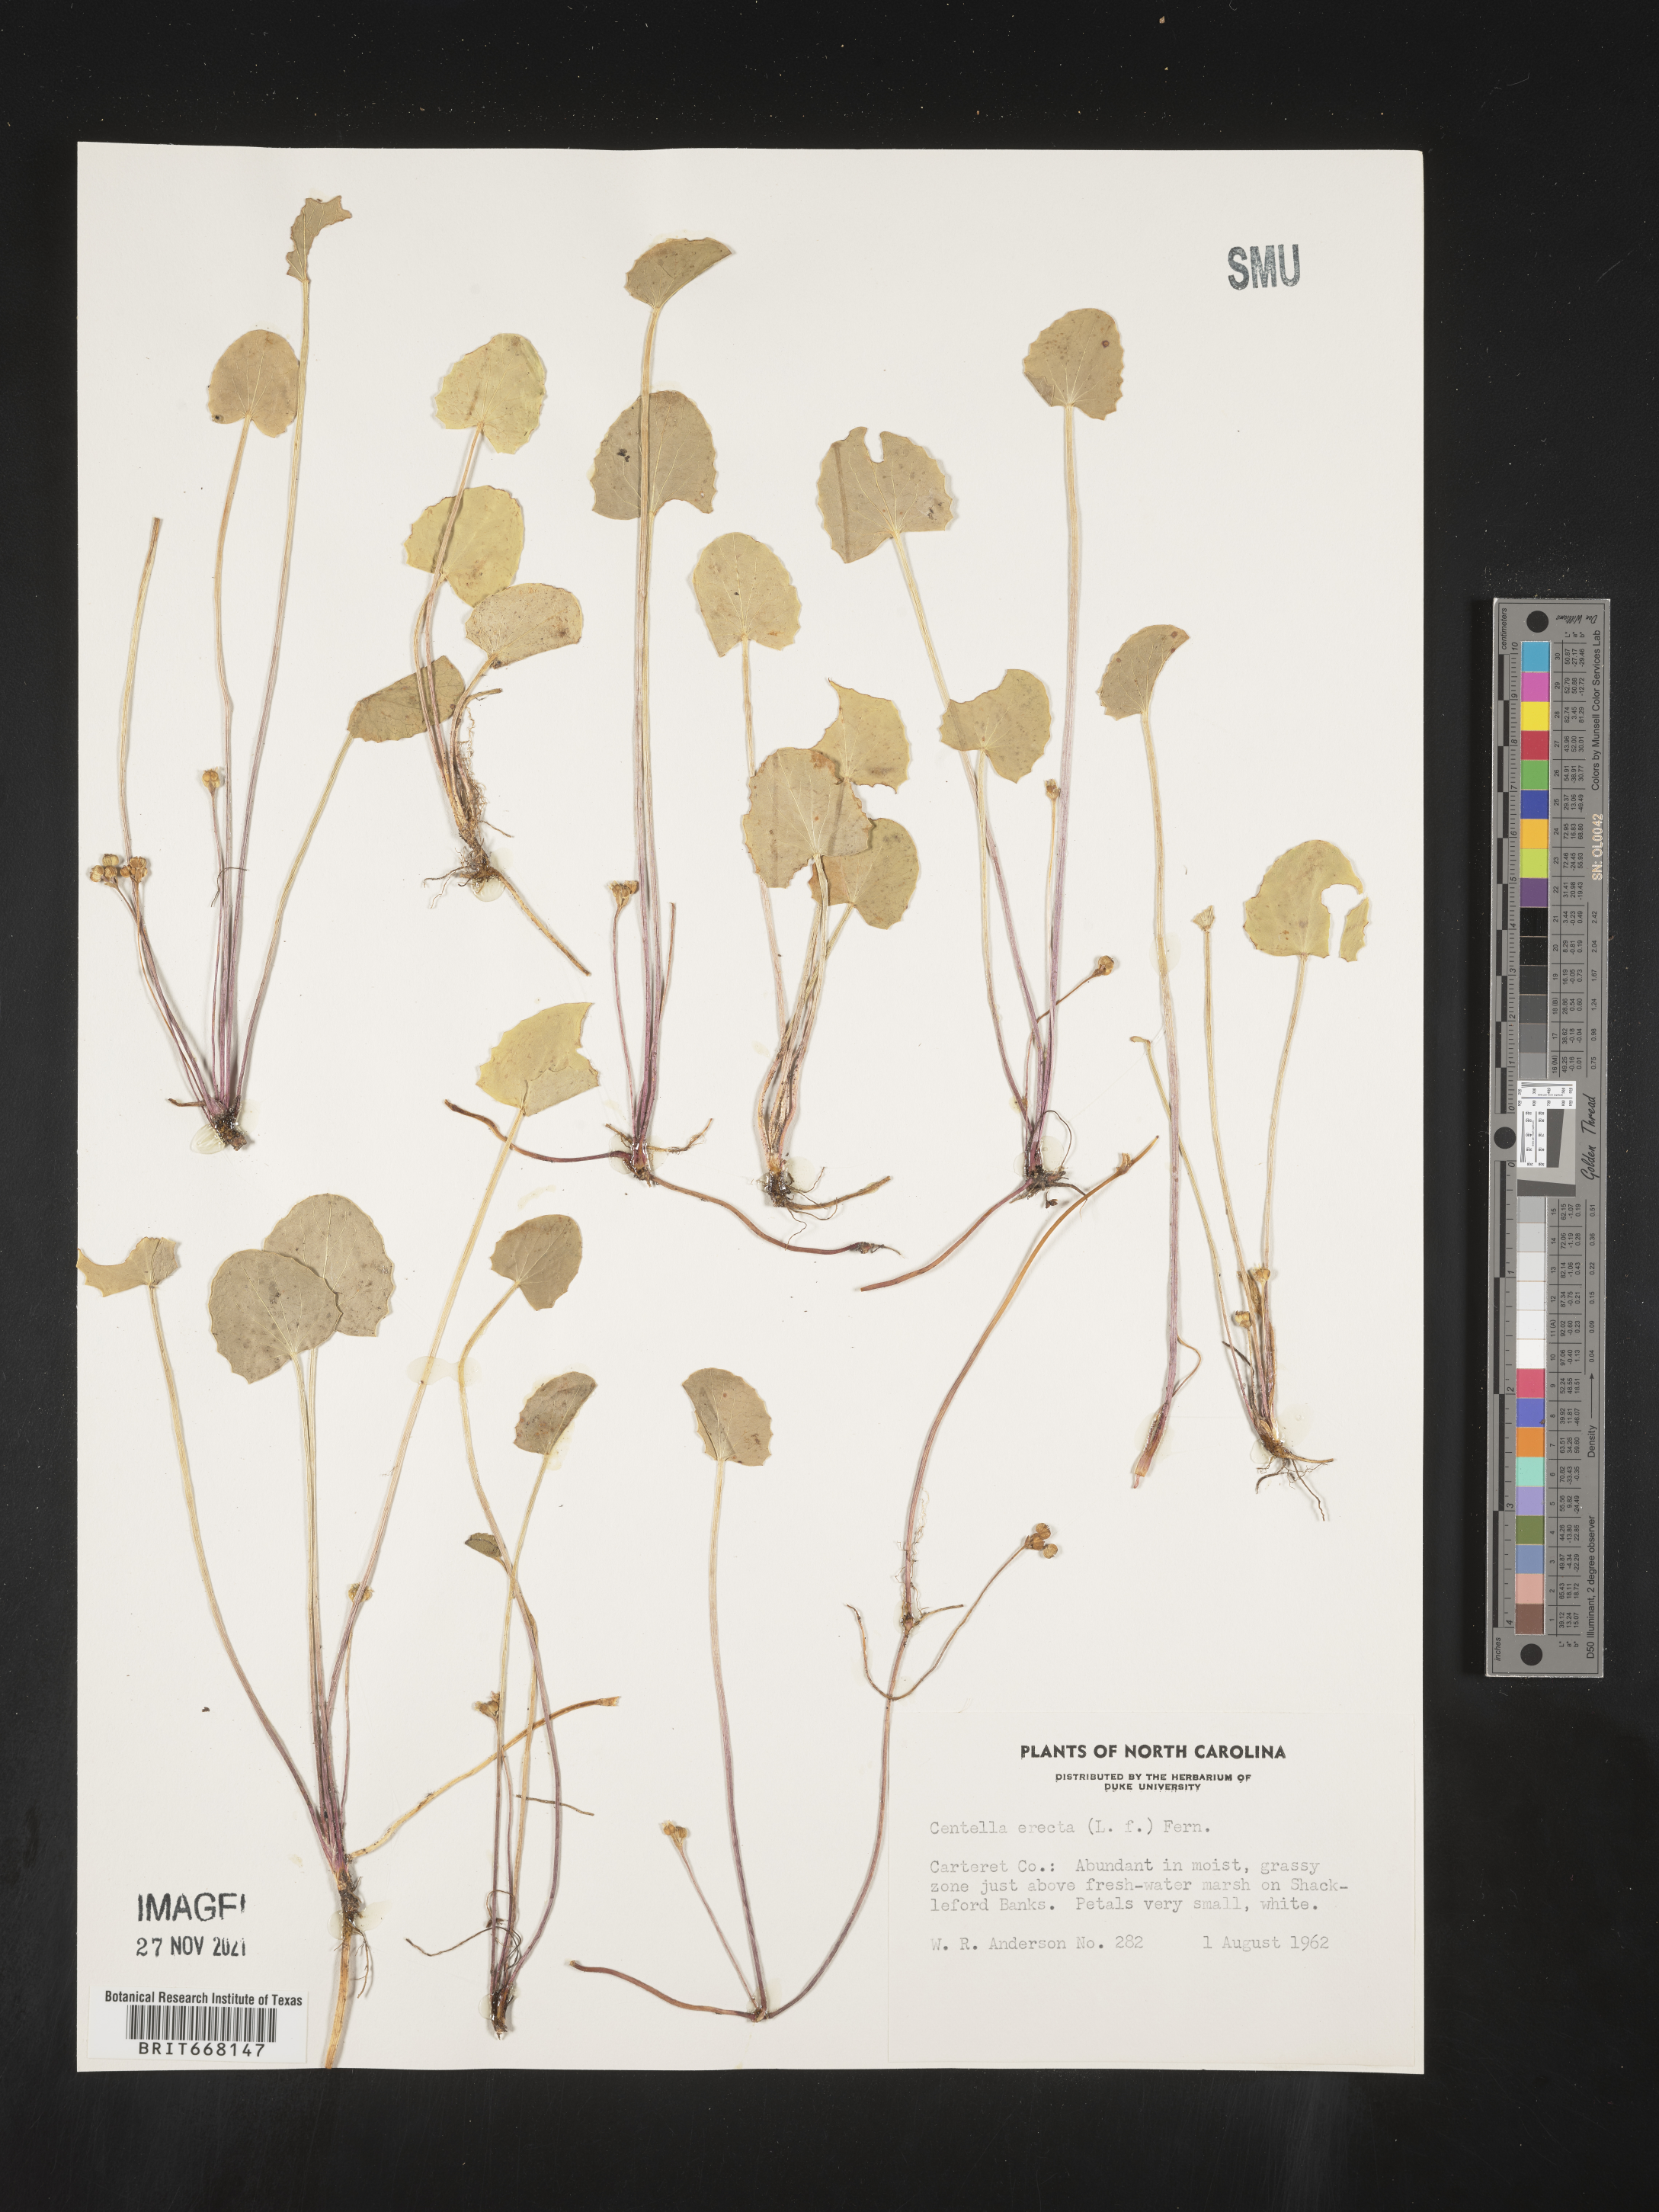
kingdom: Plantae
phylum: Tracheophyta
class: Magnoliopsida
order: Apiales
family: Apiaceae
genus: Centella
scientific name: Centella
